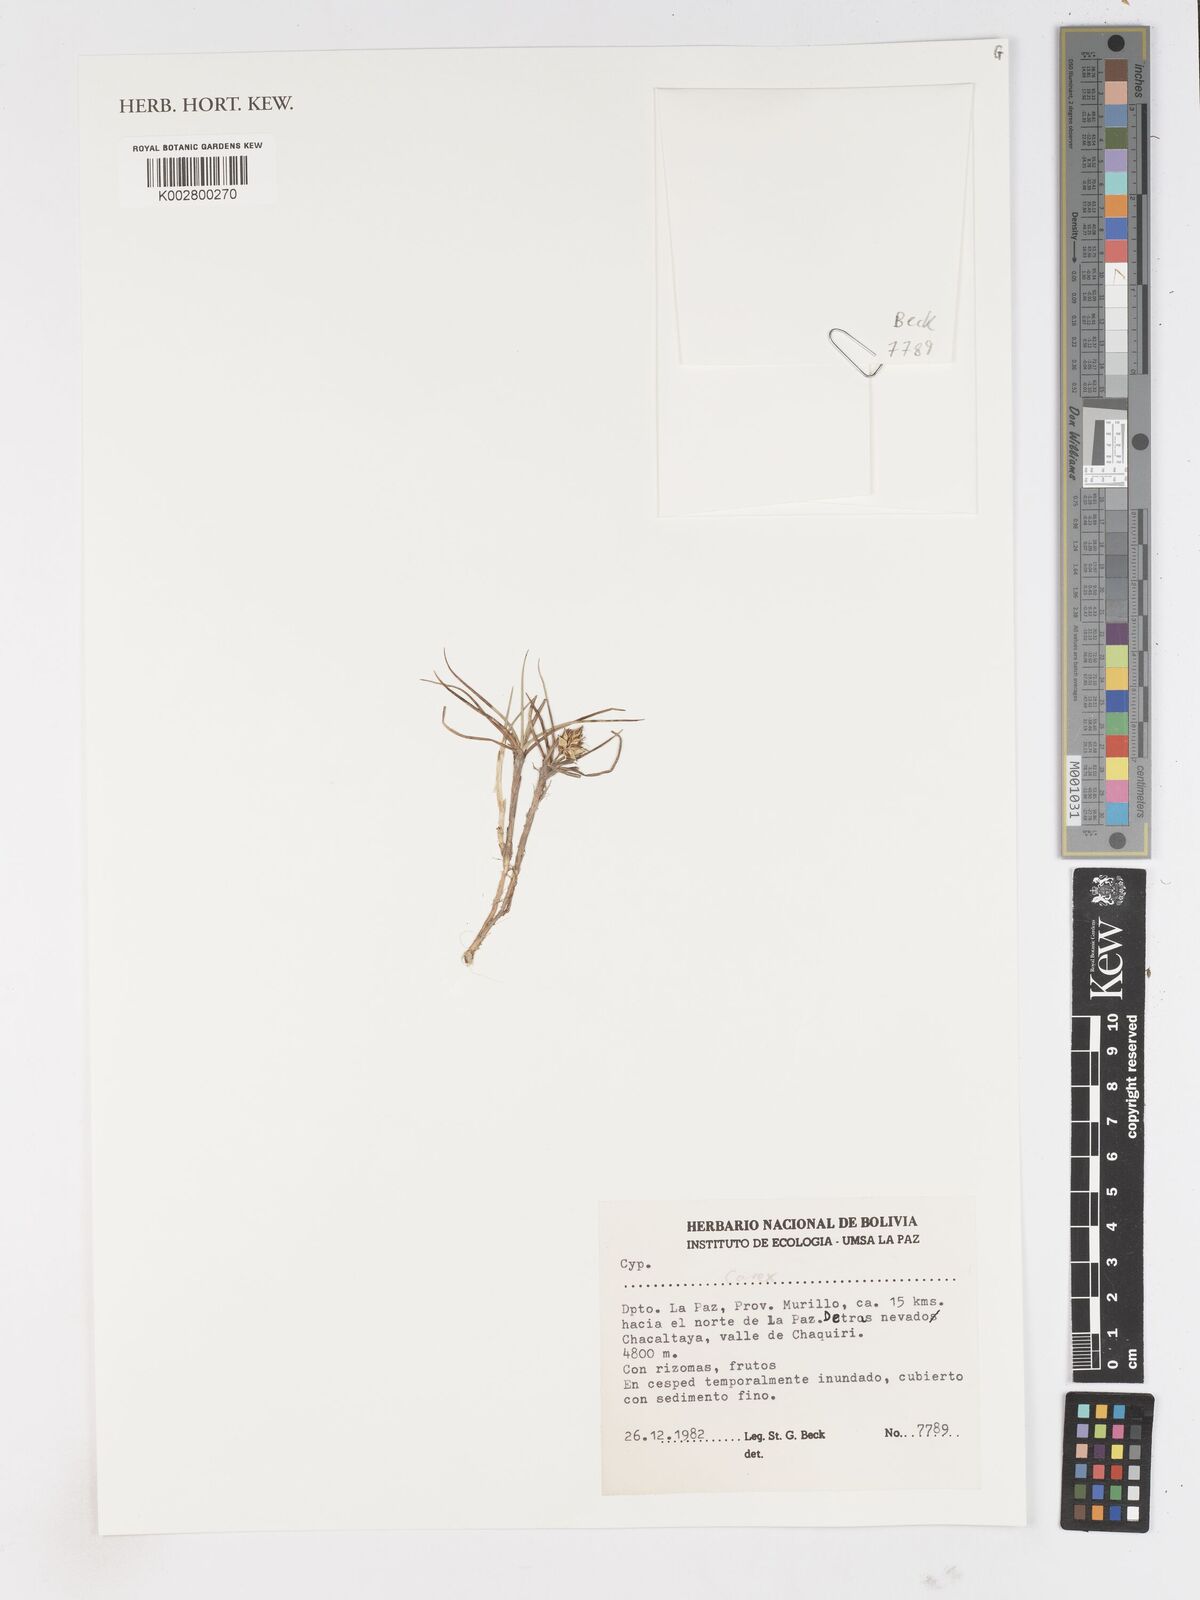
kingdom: Plantae
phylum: Tracheophyta
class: Liliopsida
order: Poales
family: Cyperaceae
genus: Carex
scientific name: Carex
